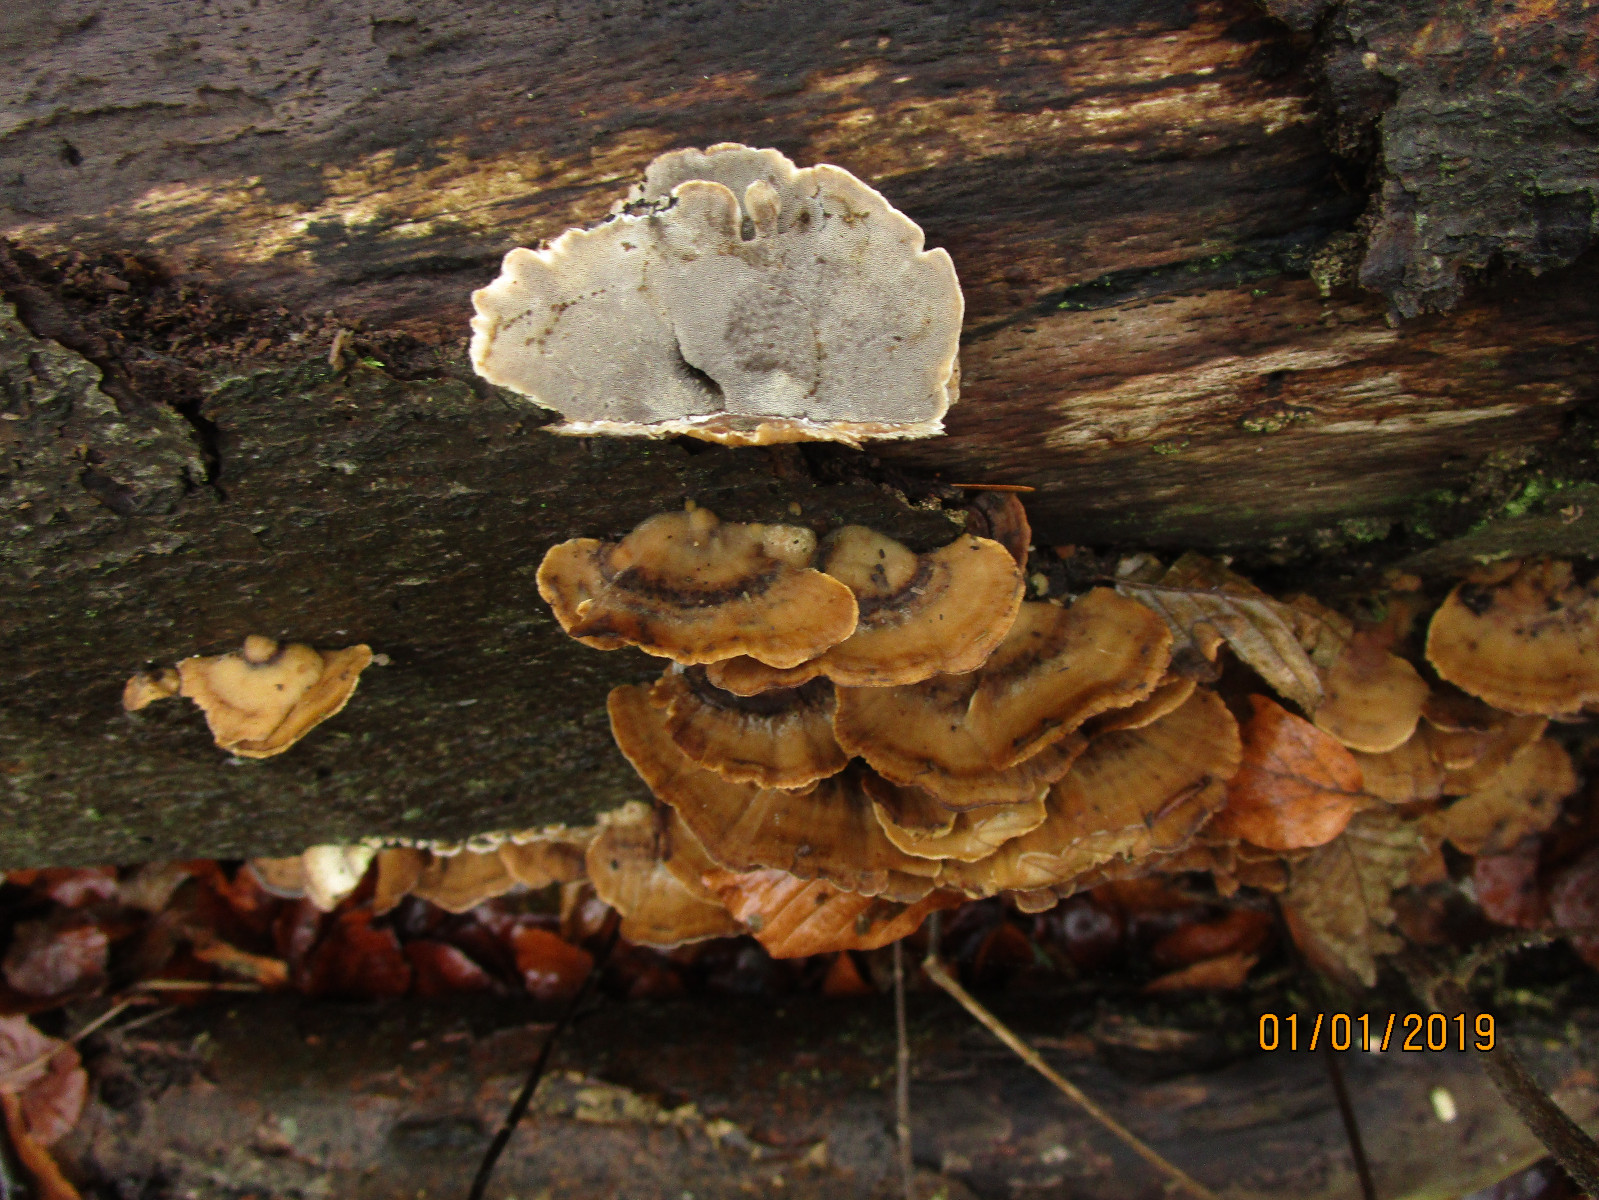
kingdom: Fungi
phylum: Basidiomycota
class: Agaricomycetes
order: Polyporales
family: Phanerochaetaceae
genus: Bjerkandera
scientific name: Bjerkandera adusta
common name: sveden sodporesvamp
